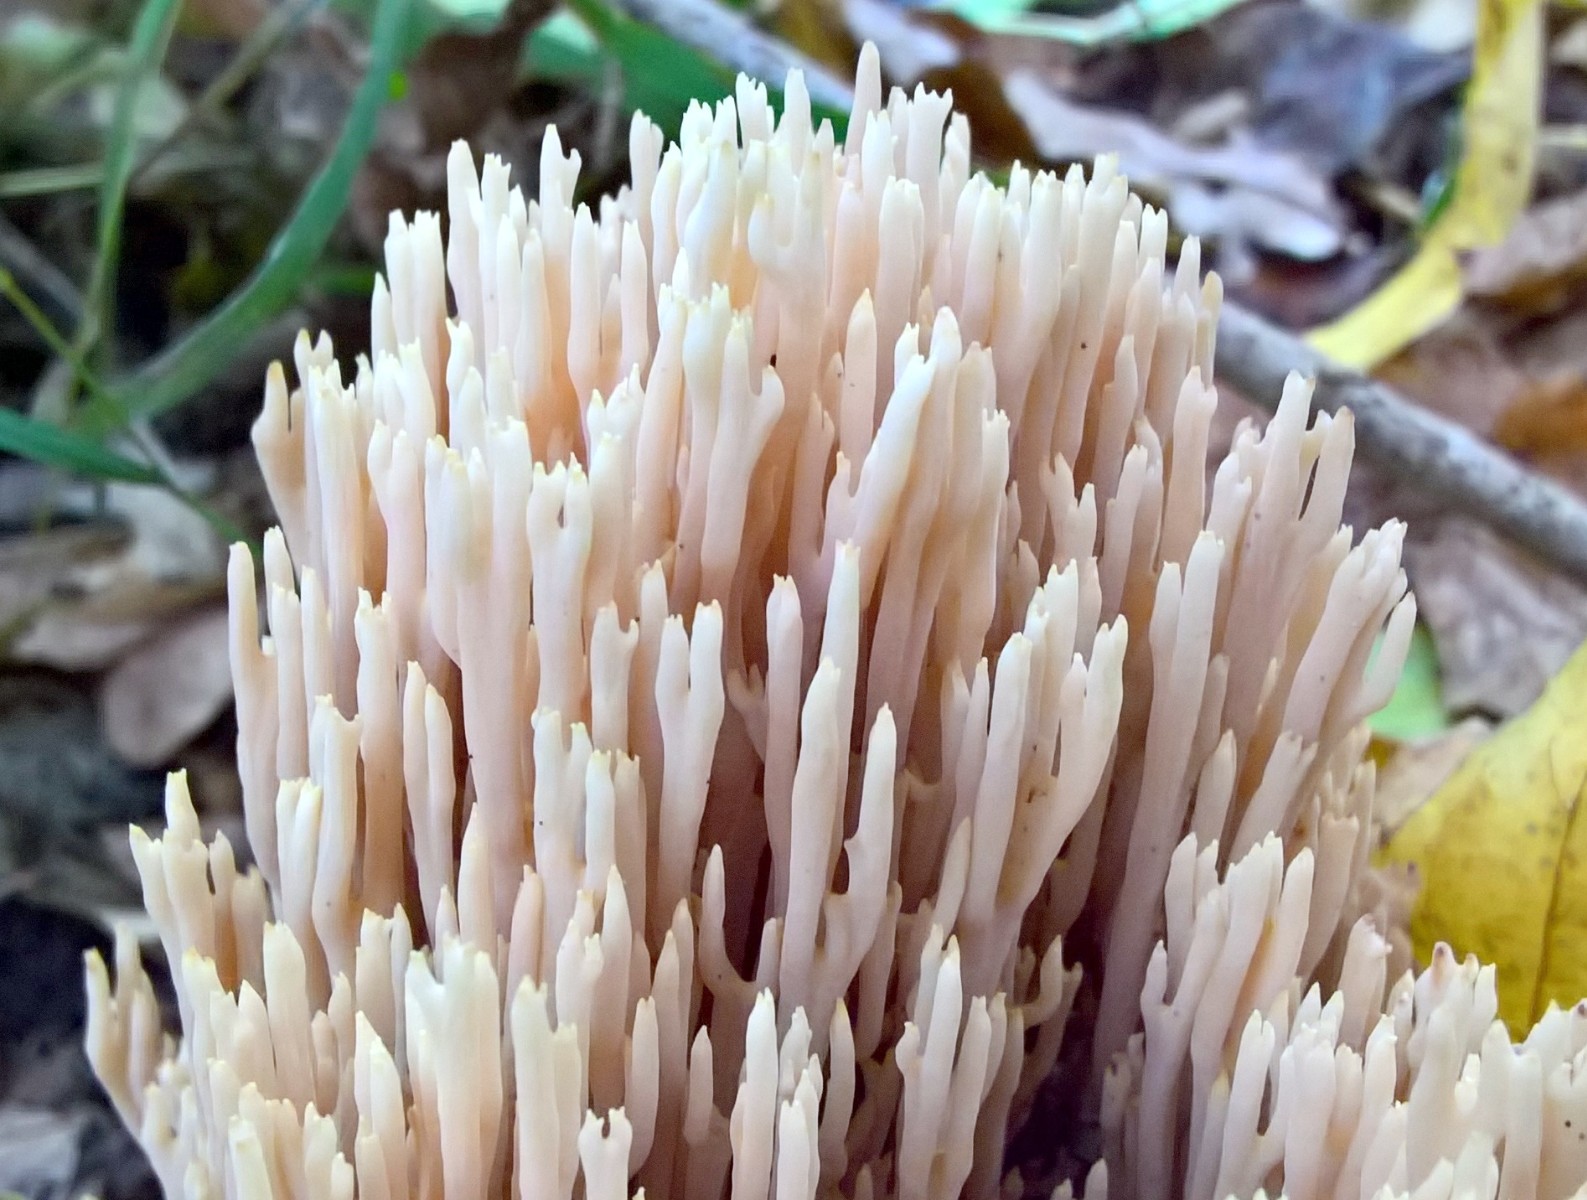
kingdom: Fungi
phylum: Basidiomycota
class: Agaricomycetes
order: Gomphales
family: Gomphaceae
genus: Ramaria
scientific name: Ramaria stricta
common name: rank koralsvamp
